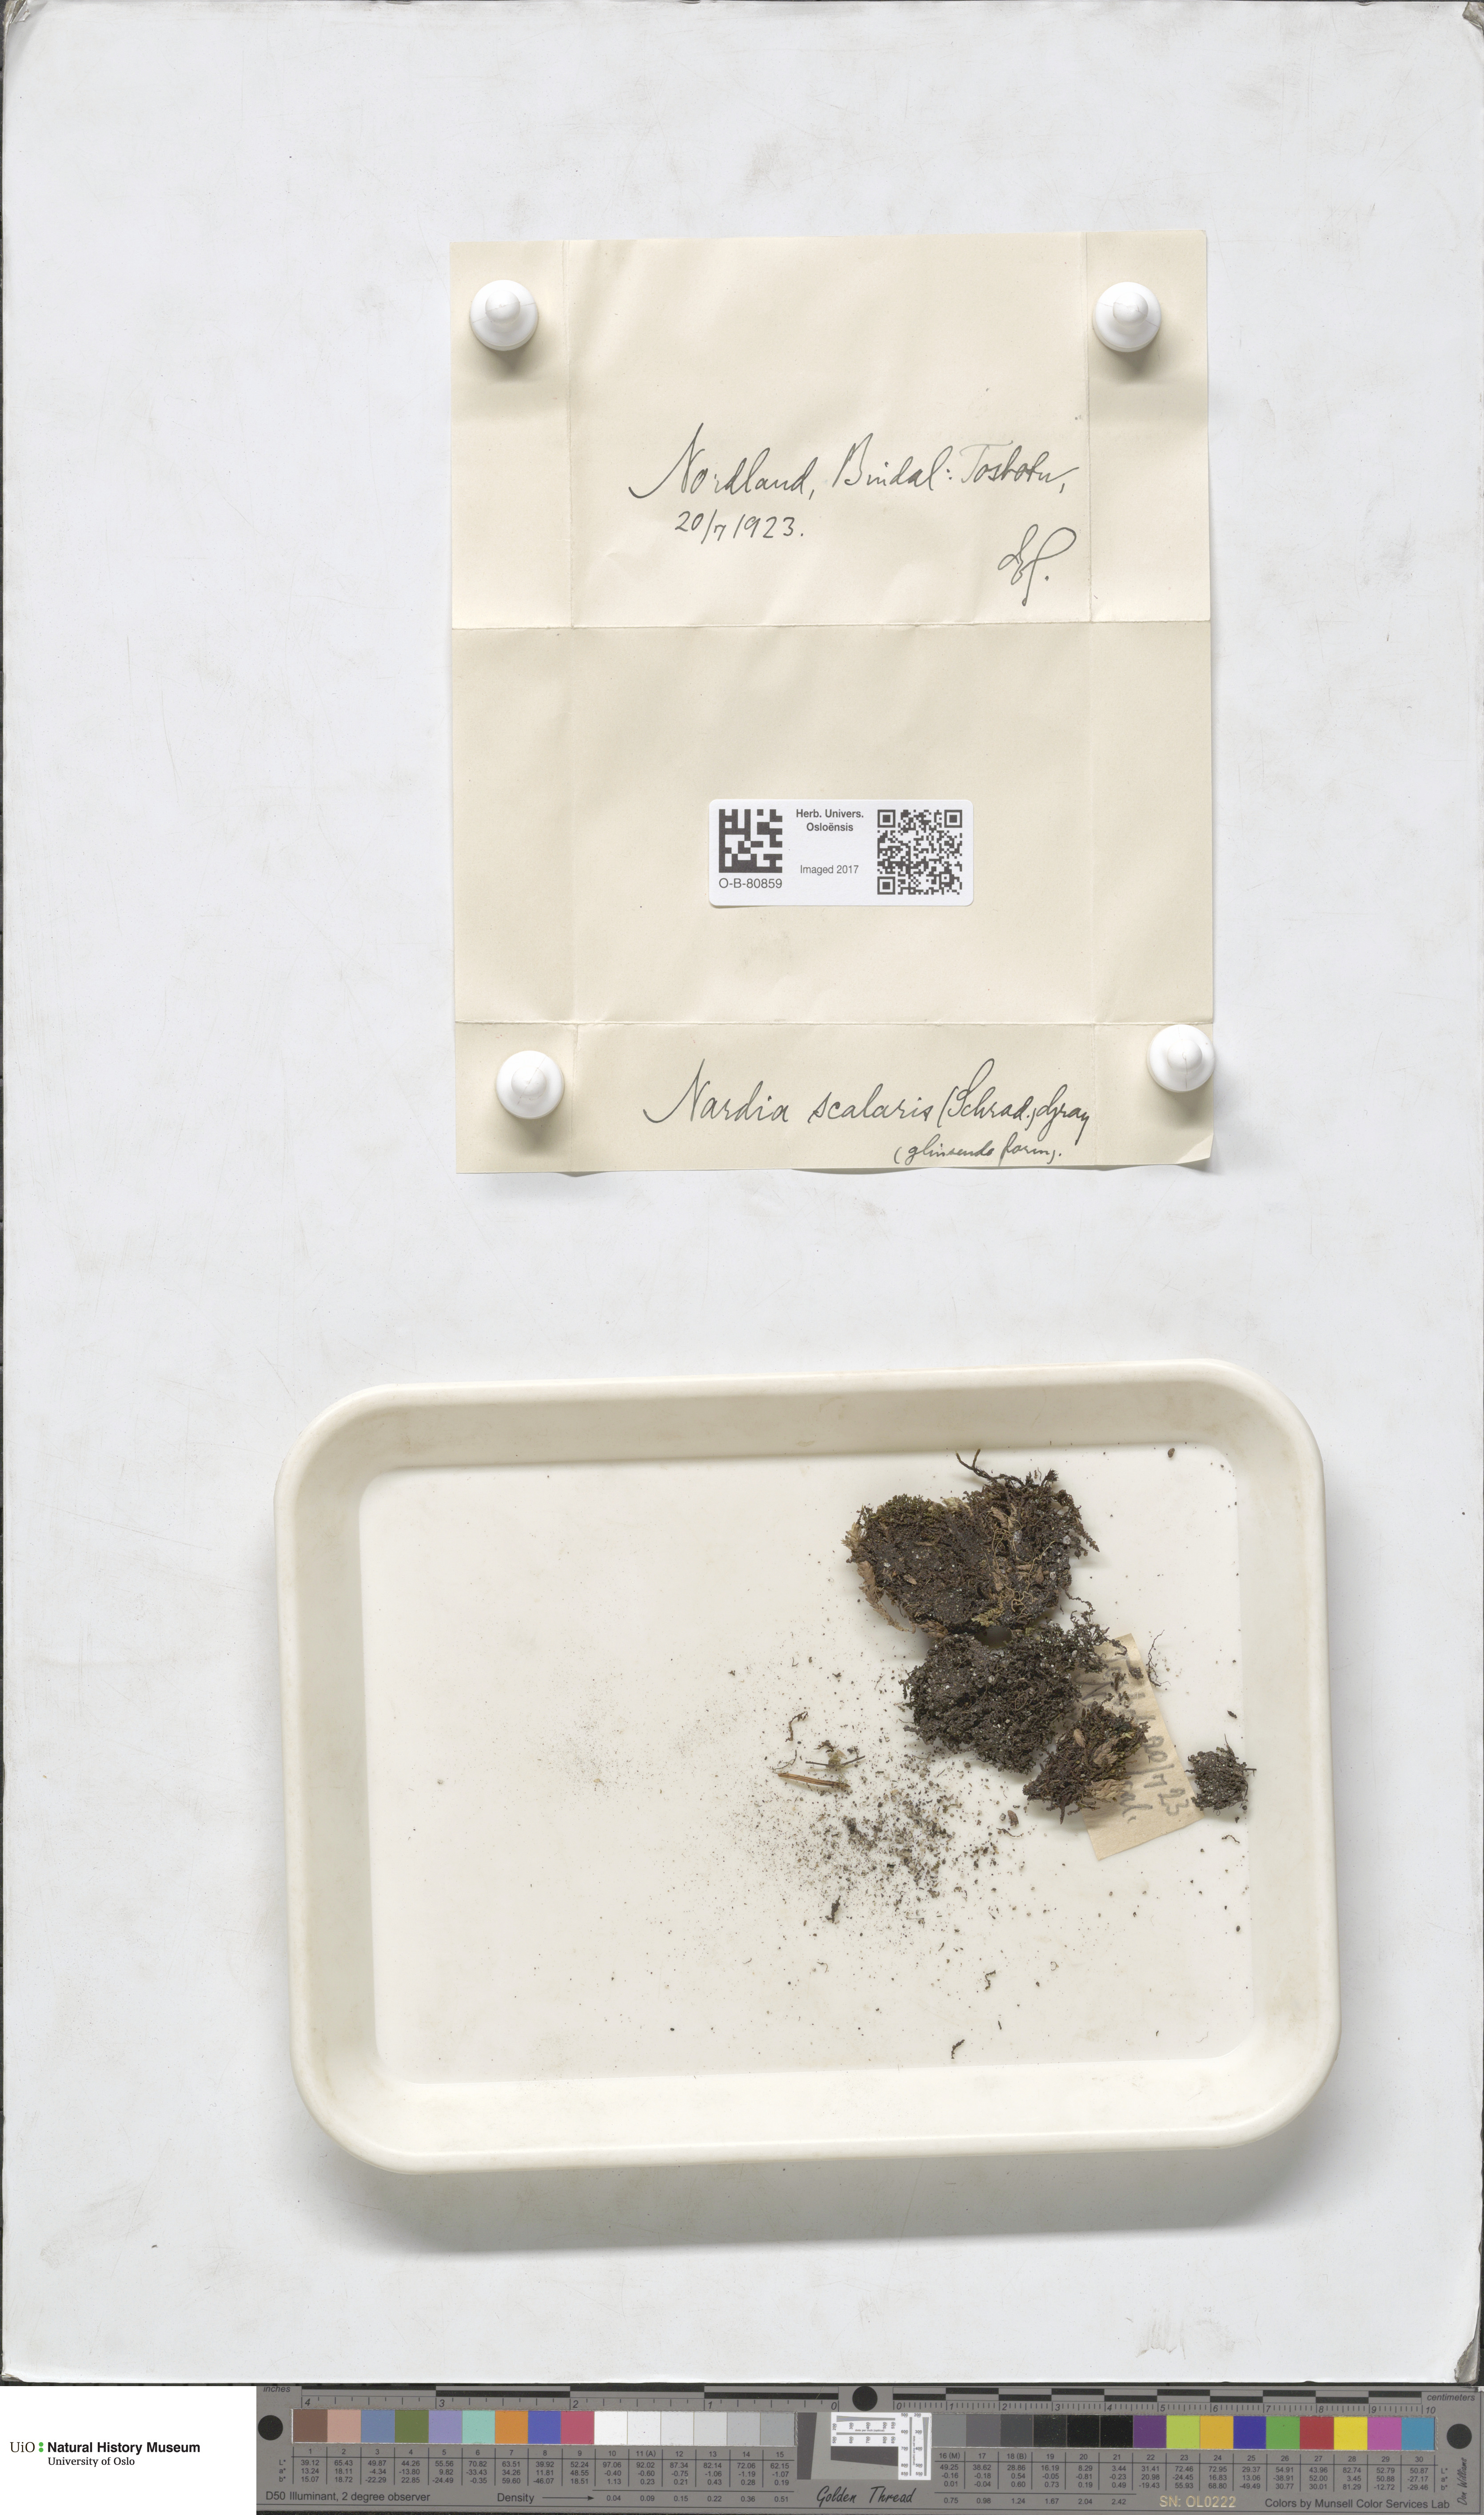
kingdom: Plantae
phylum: Marchantiophyta
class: Jungermanniopsida
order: Jungermanniales
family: Gymnomitriaceae
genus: Nardia
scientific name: Nardia scalaris
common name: Ladder flapwort
